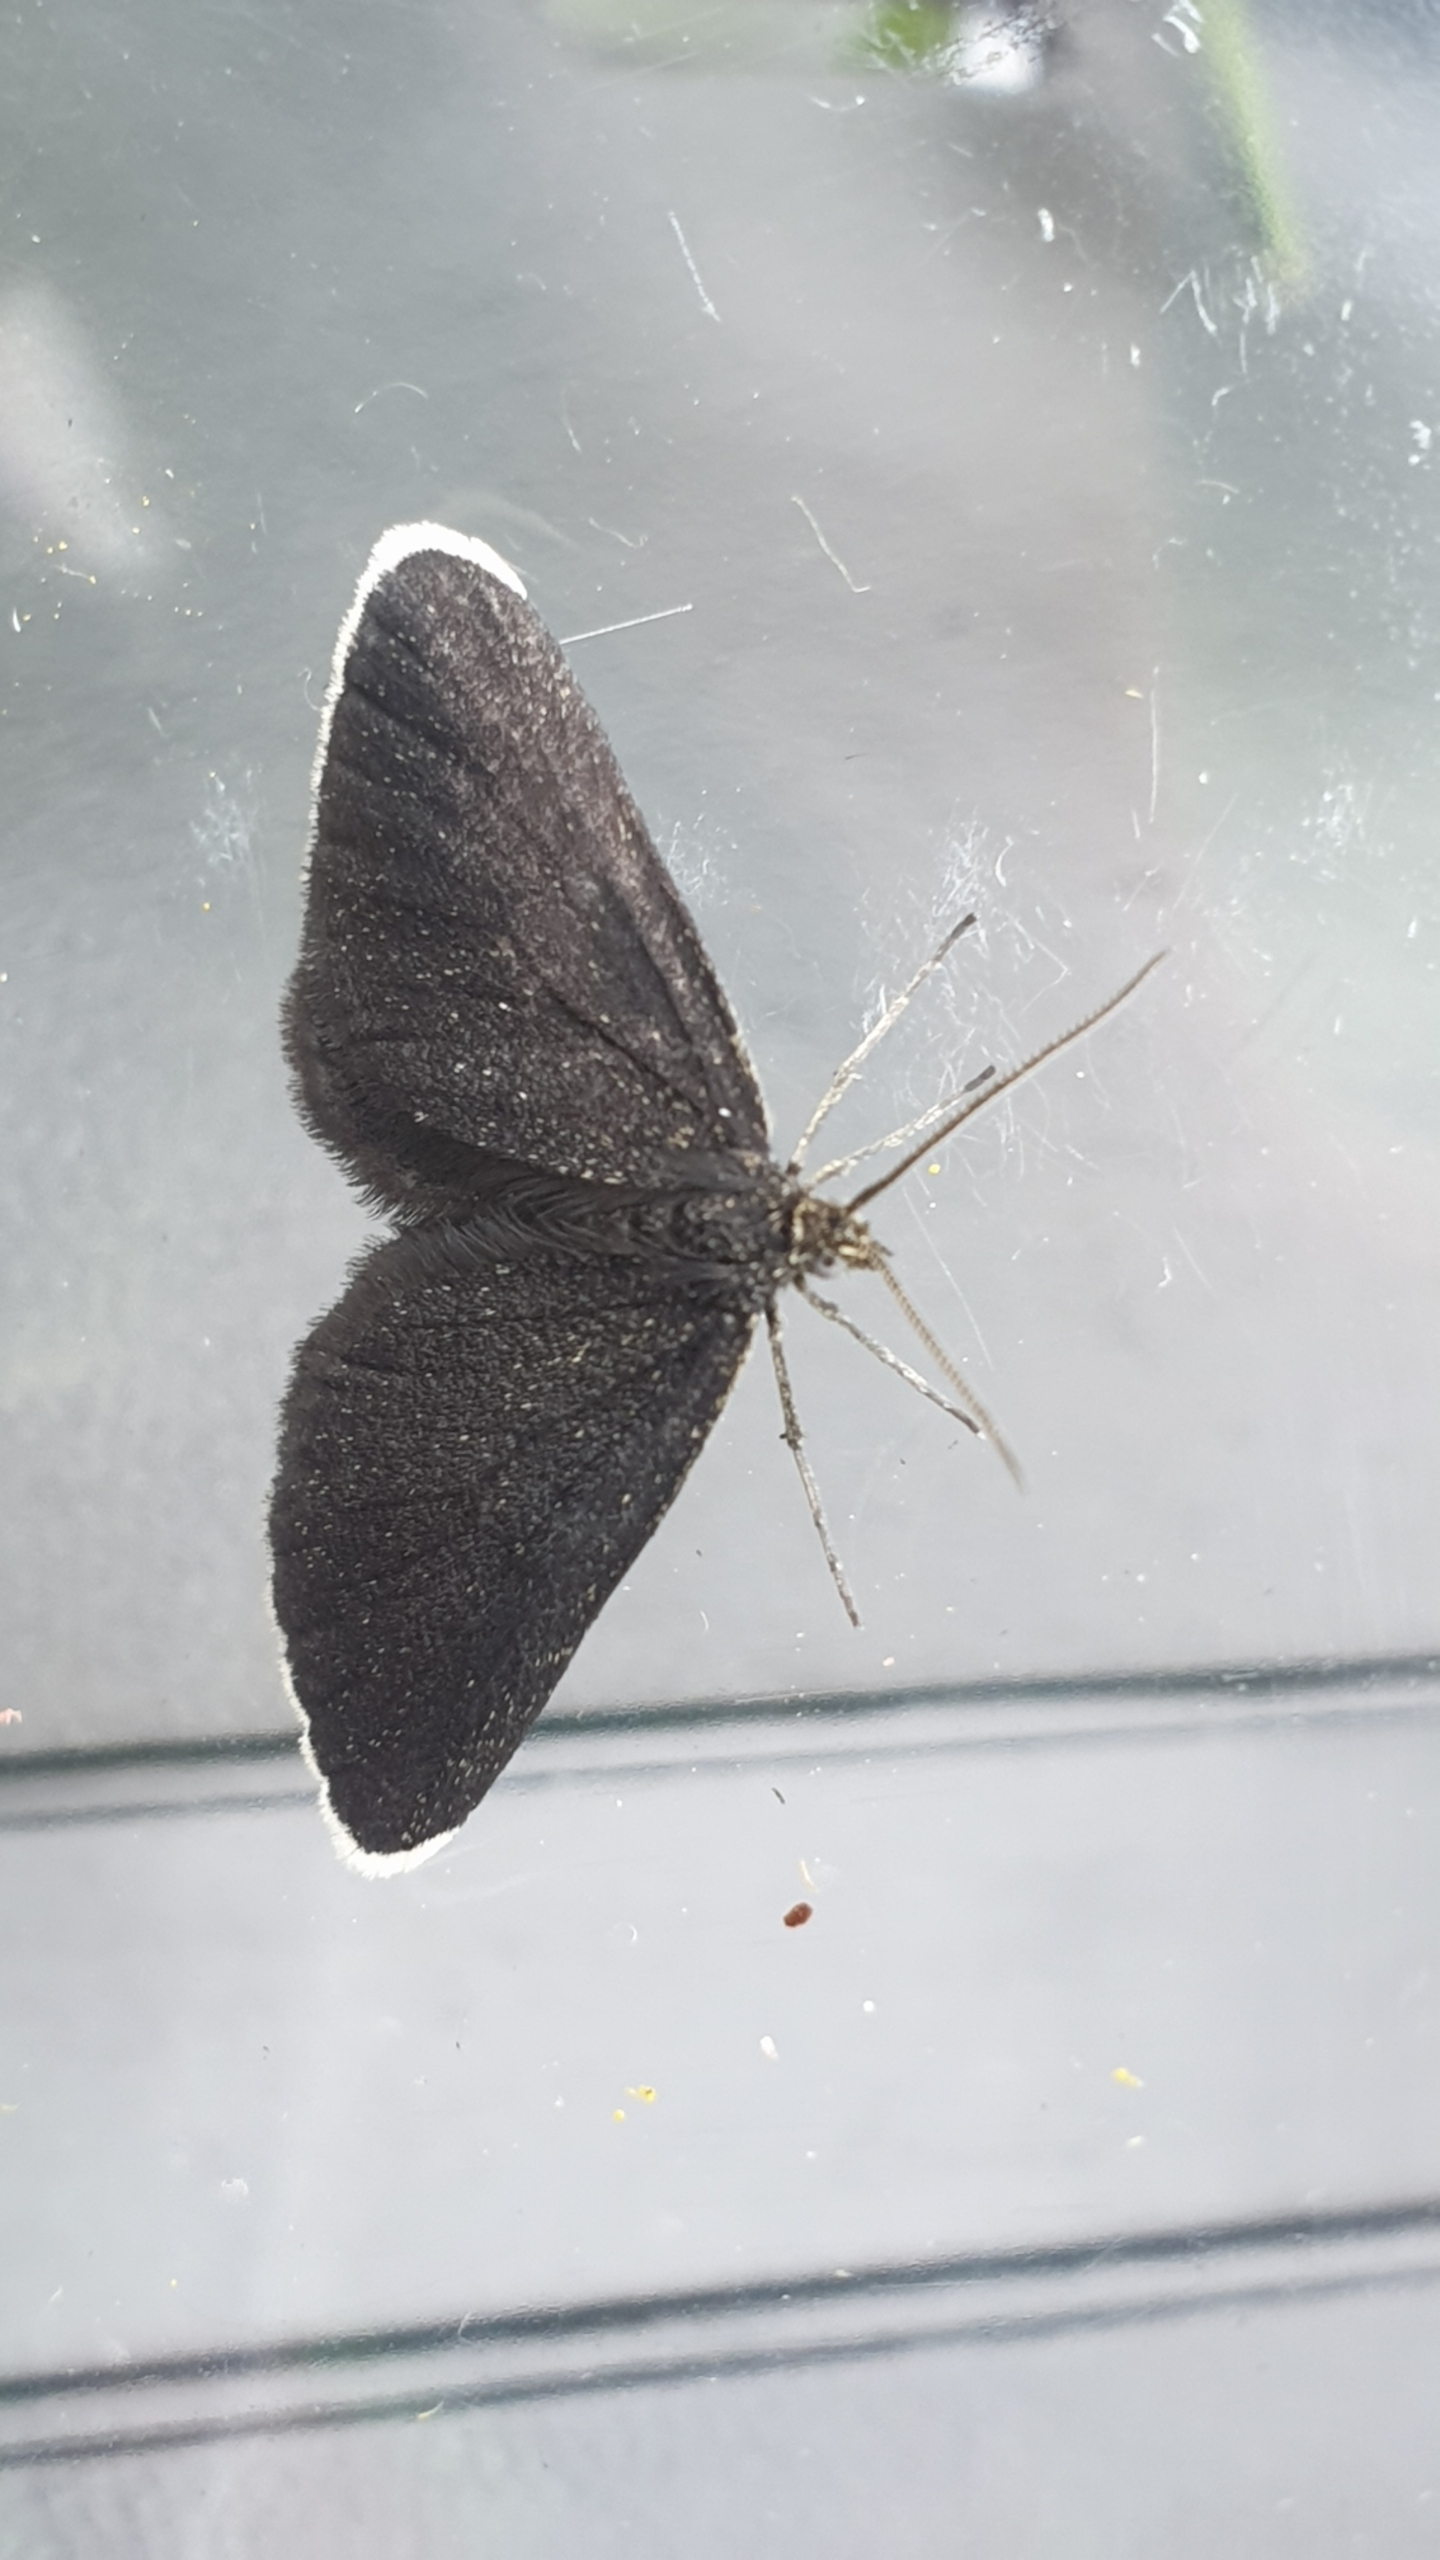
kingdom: Animalia
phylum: Arthropoda
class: Insecta
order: Lepidoptera
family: Geometridae
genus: Odezia
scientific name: Odezia atrata
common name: Sort måler
